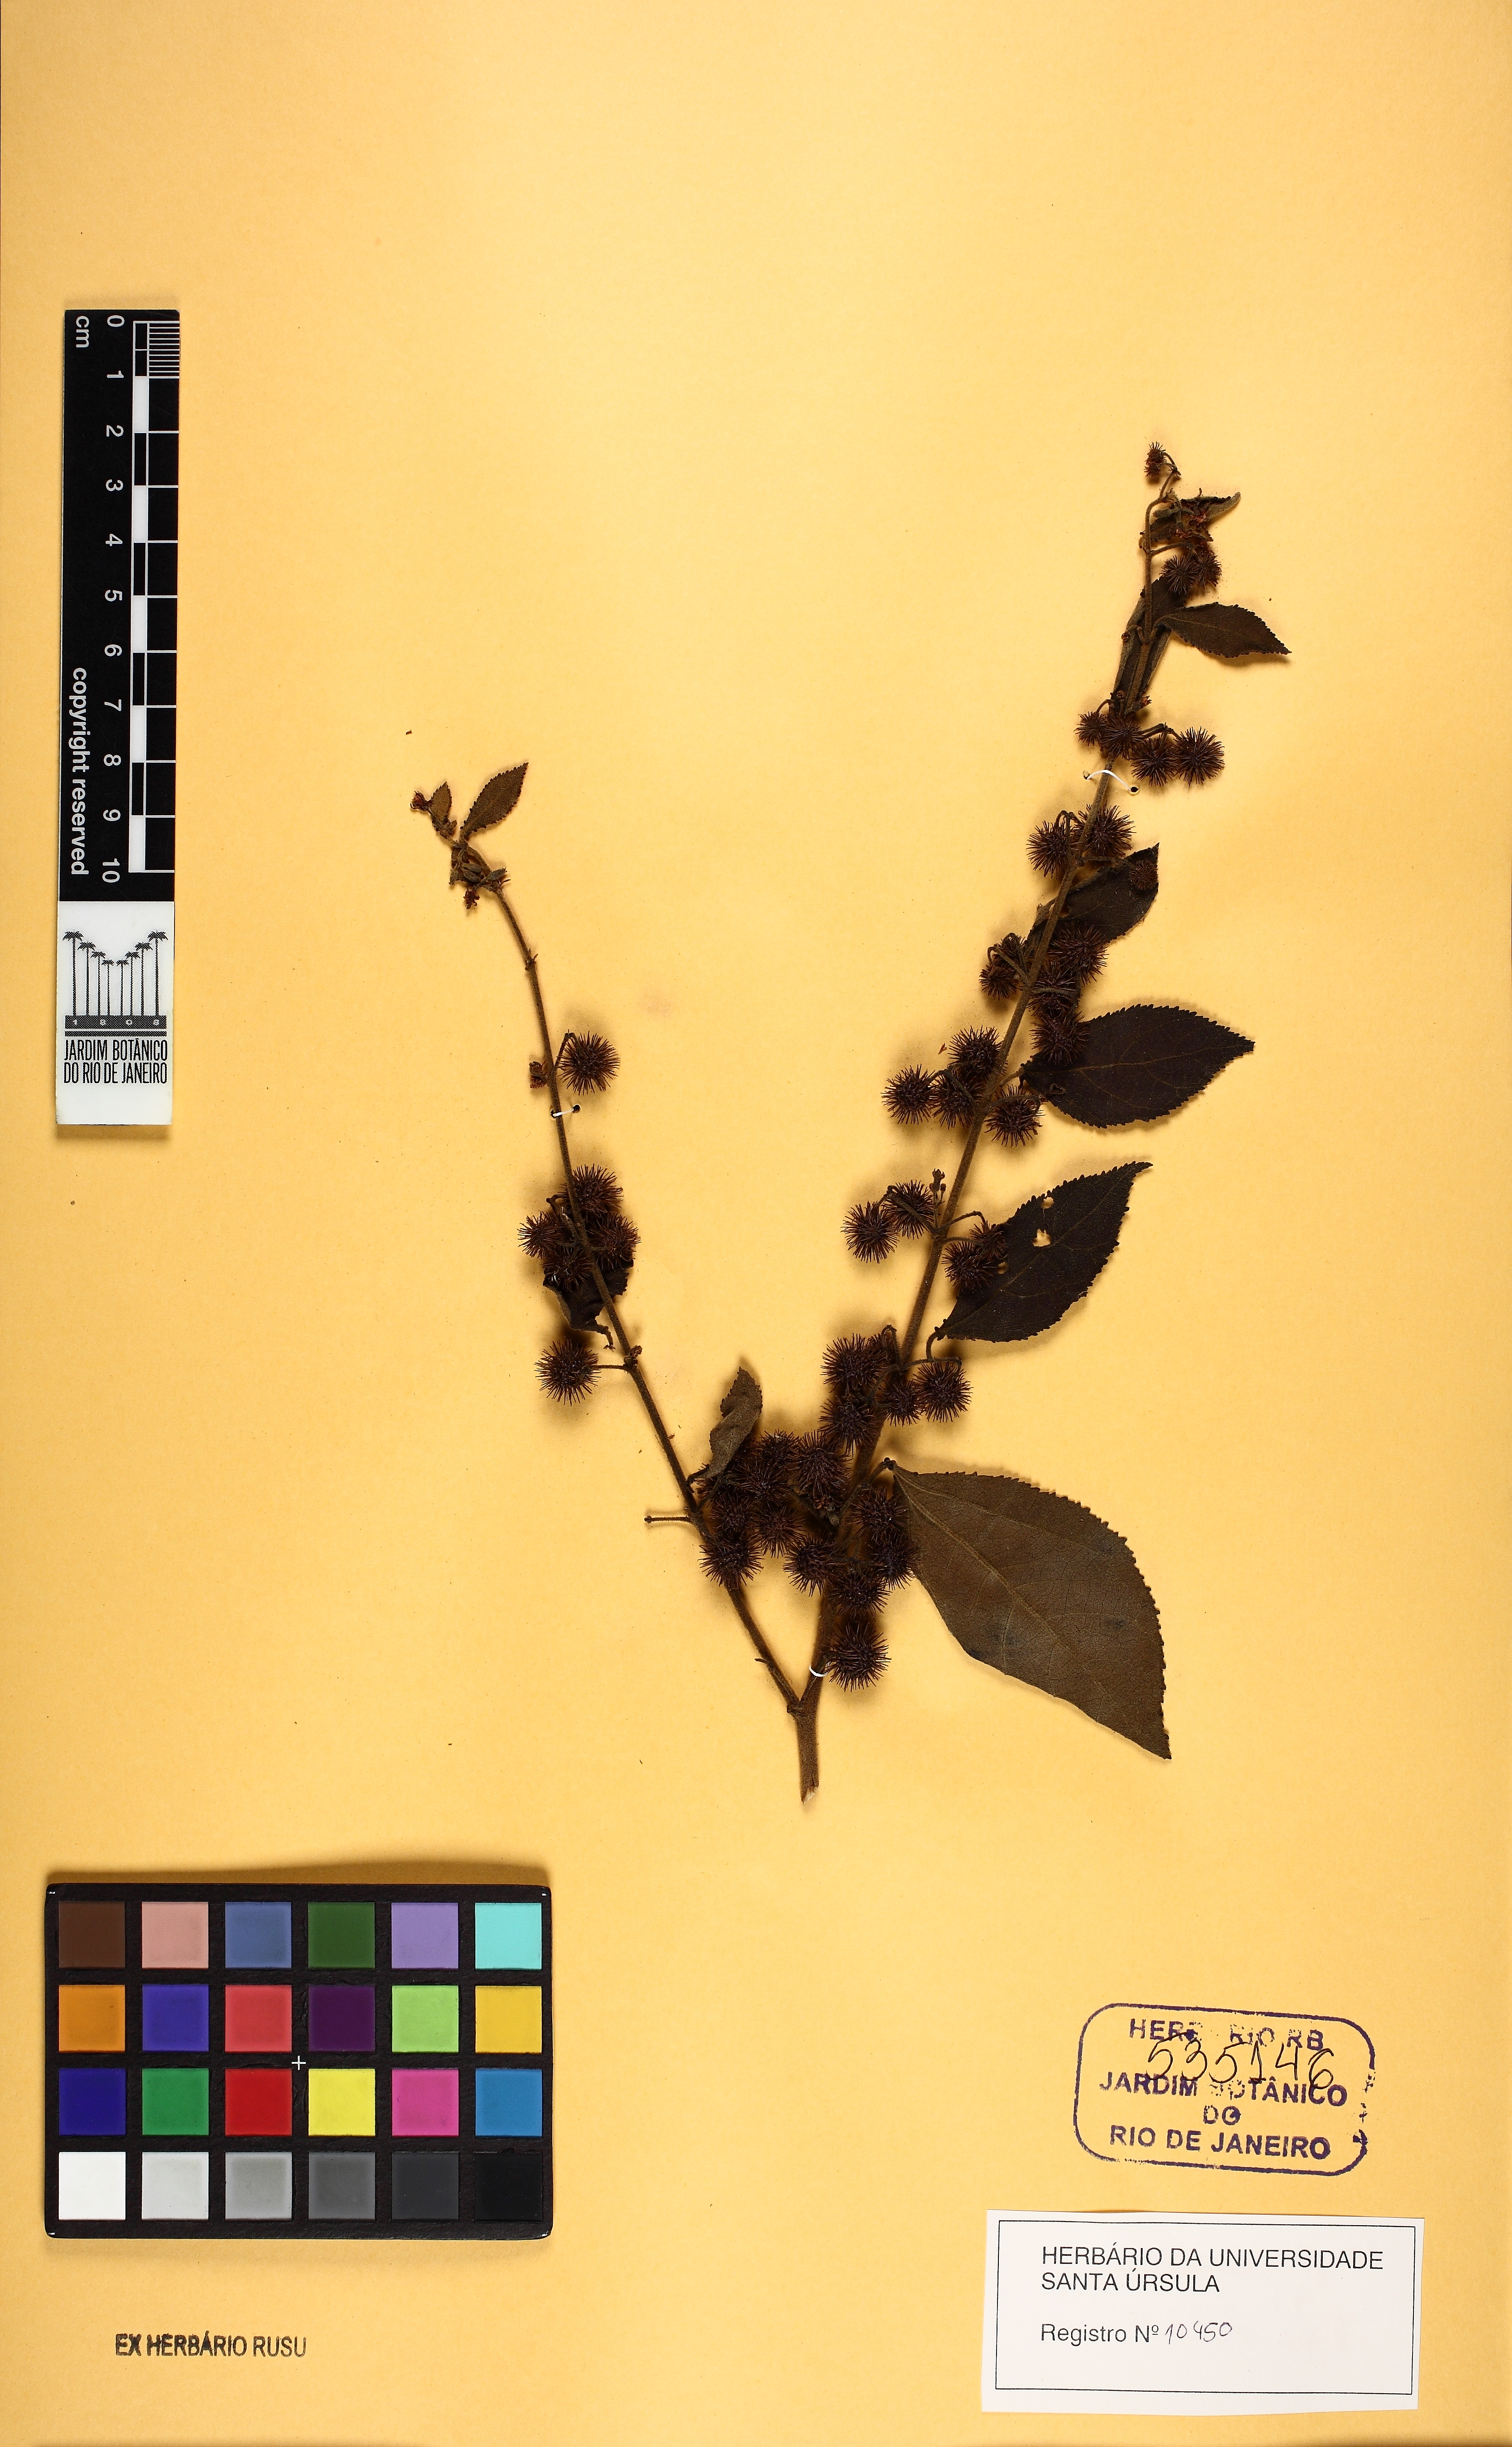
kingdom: Plantae
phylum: Tracheophyta
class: Magnoliopsida
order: Malvales
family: Malvaceae
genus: Triumfetta
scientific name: Triumfetta althaeoides
